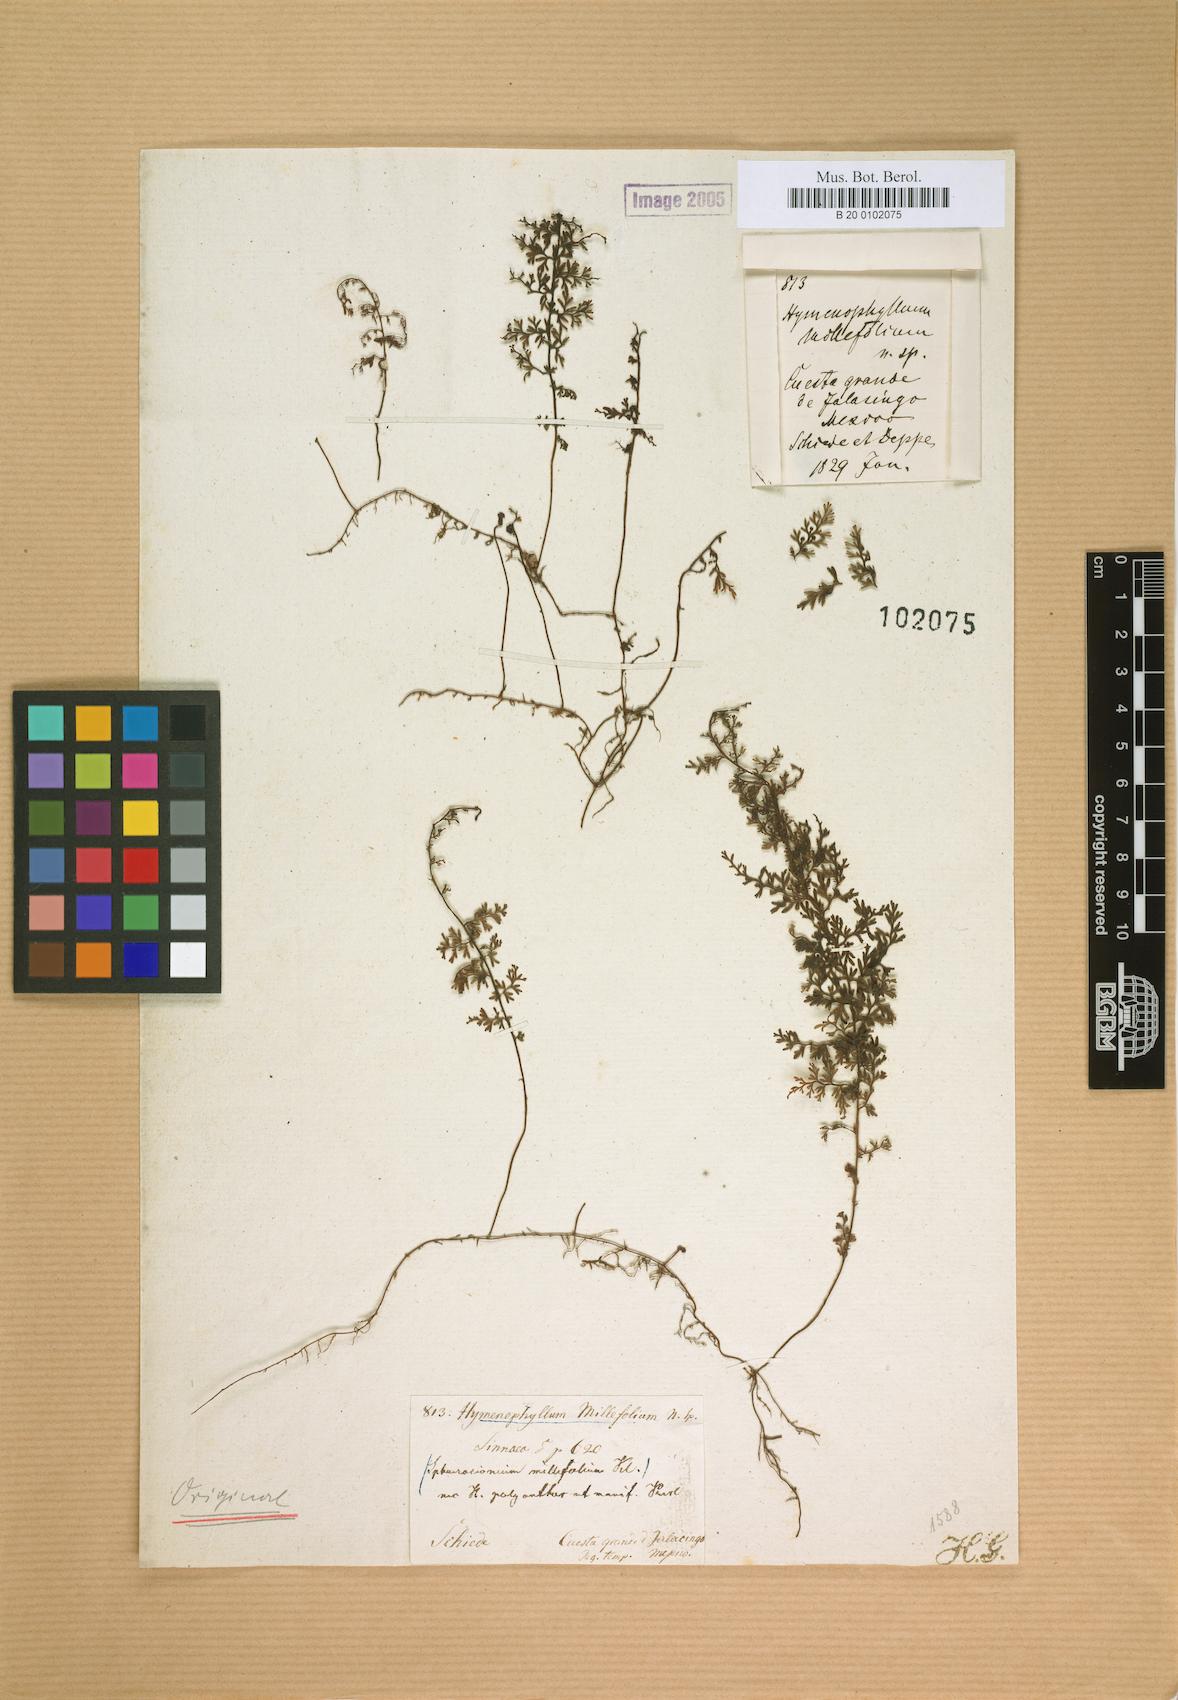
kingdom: Plantae
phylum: Tracheophyta
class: Polypodiopsida
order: Hymenophyllales
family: Hymenophyllaceae
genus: Hymenophyllum
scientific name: Hymenophyllum polyanthos
